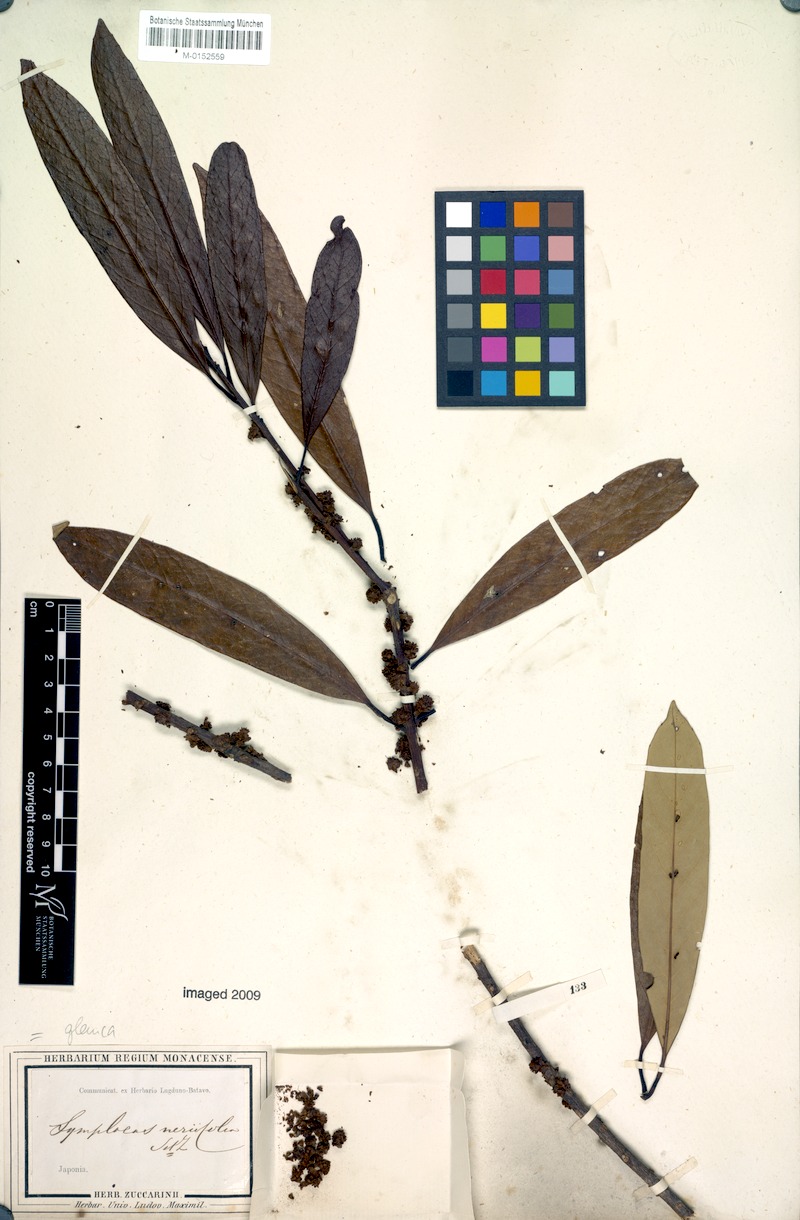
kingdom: Plantae
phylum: Tracheophyta
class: Magnoliopsida
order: Ericales
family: Symplocaceae
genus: Symplocos
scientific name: Symplocos glauca
